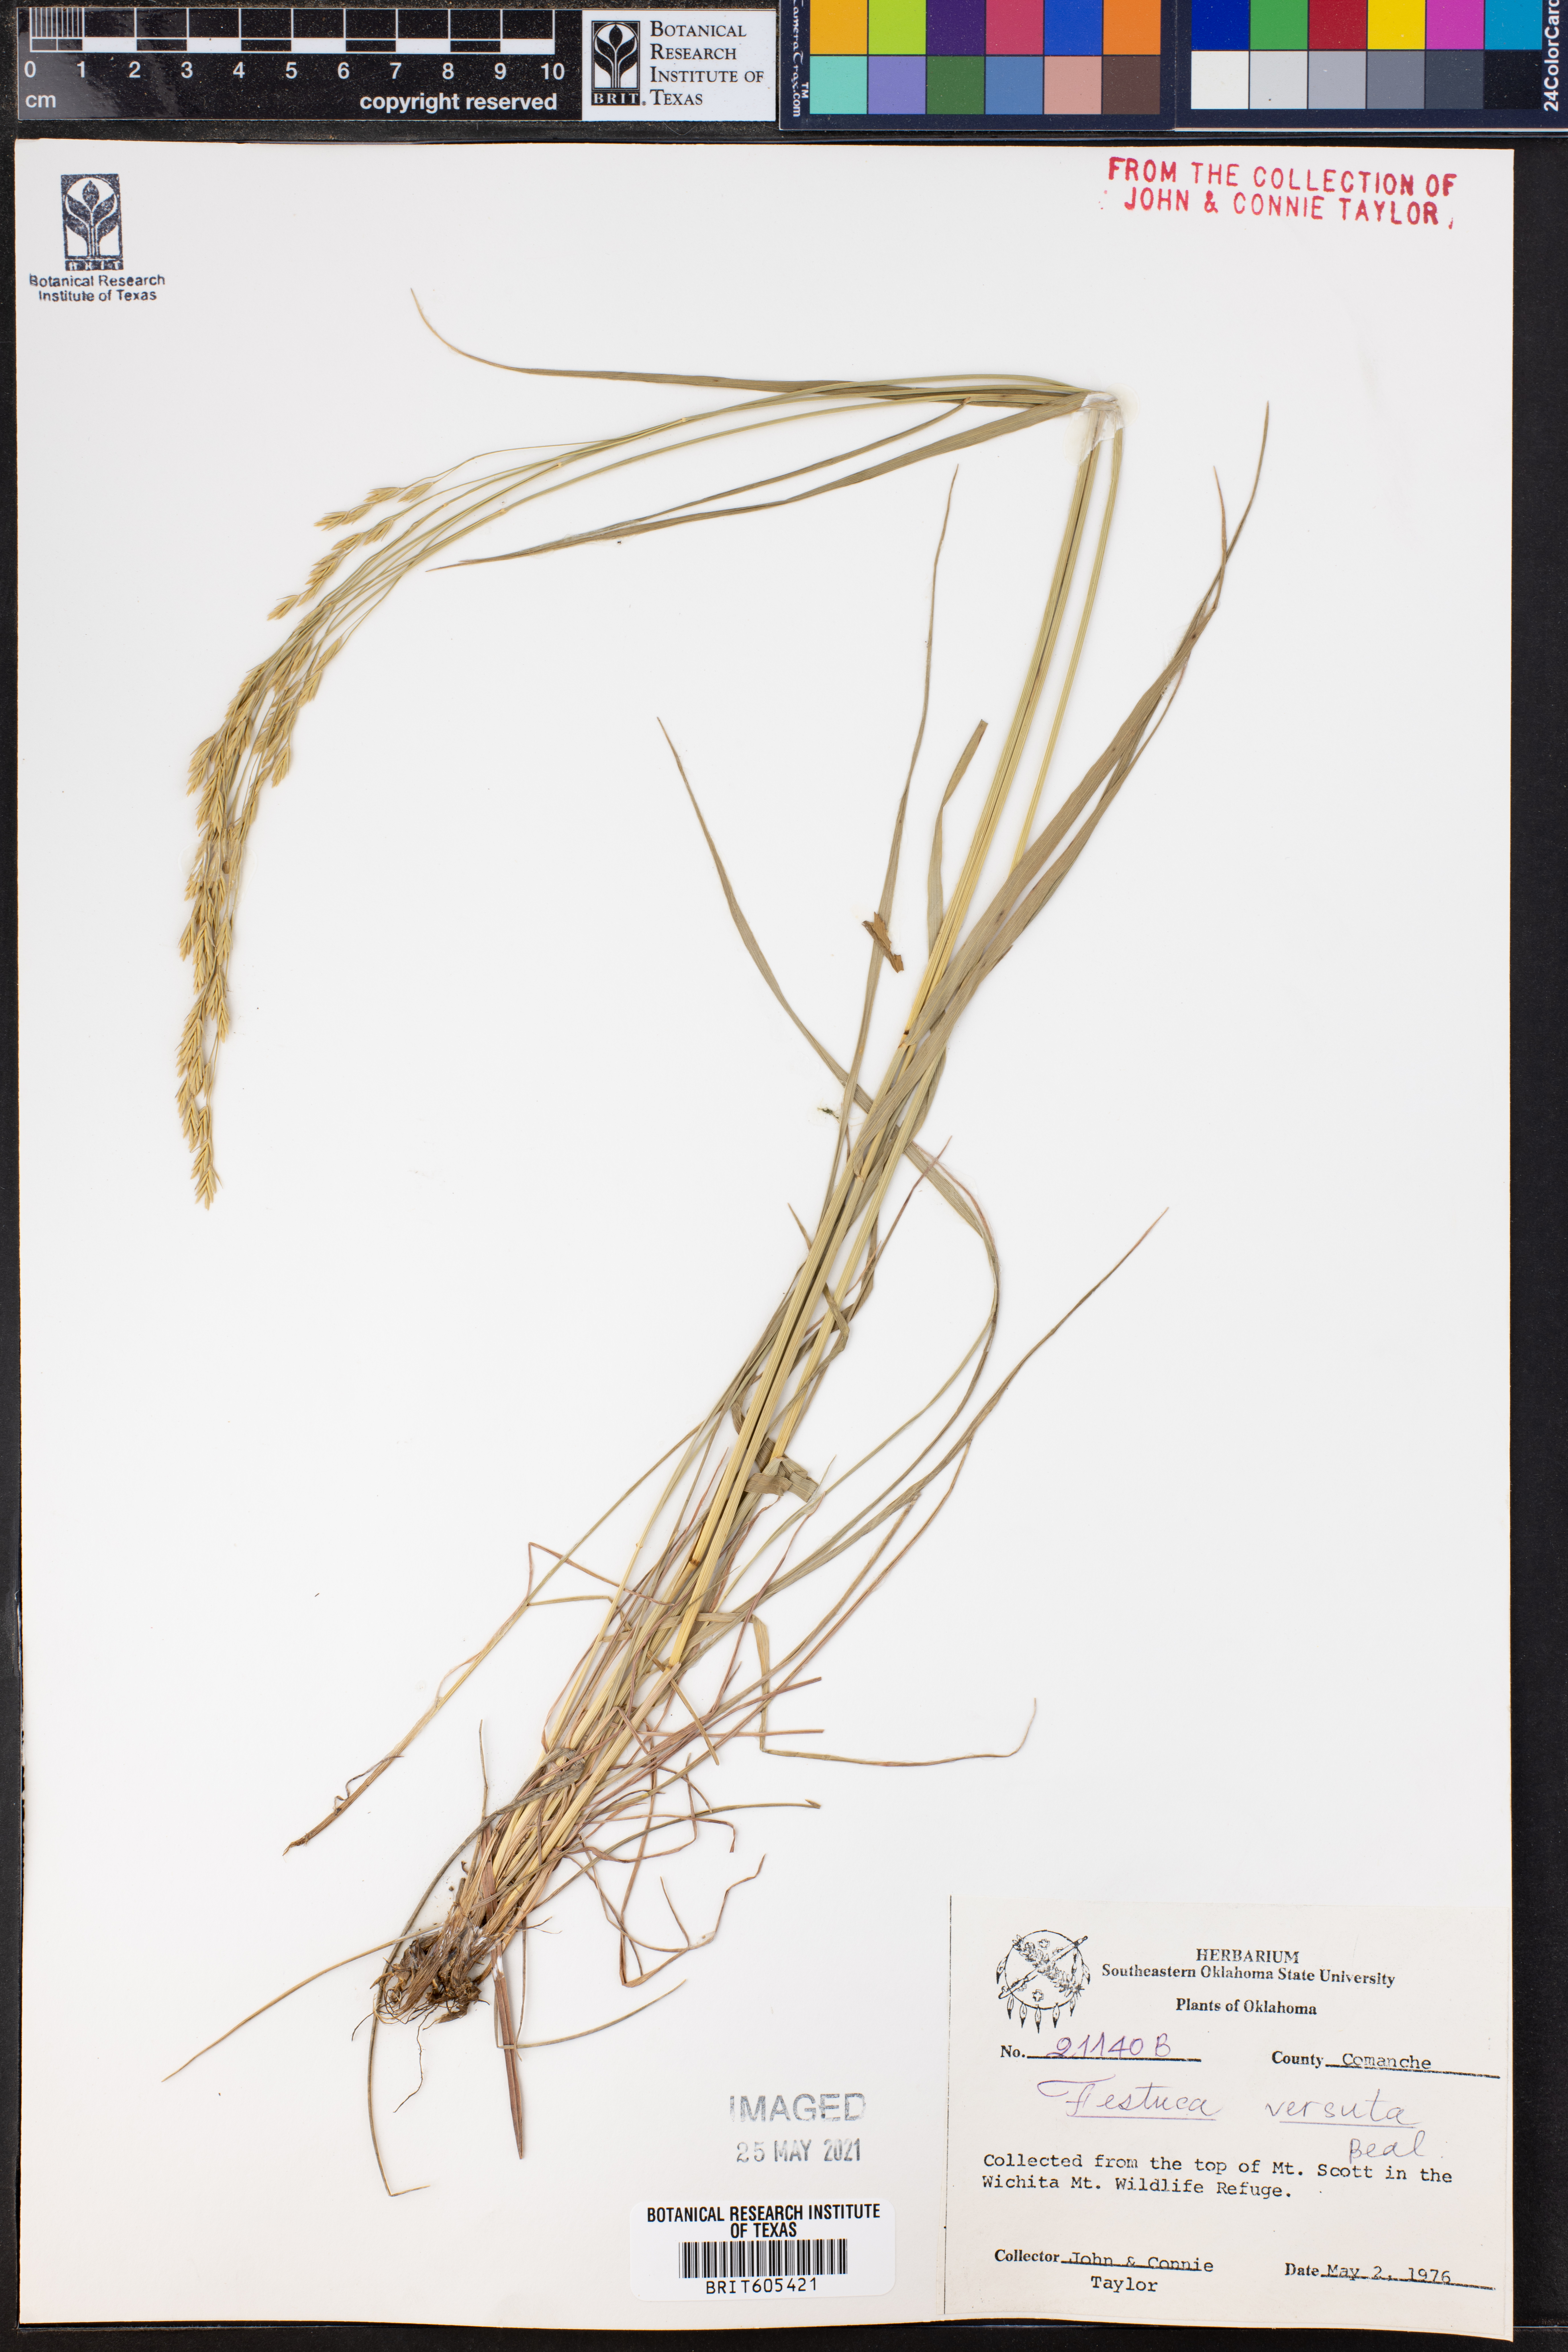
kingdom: Plantae
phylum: Tracheophyta
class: Liliopsida
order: Poales
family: Poaceae
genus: Festuca
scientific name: Festuca versuta
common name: Texas fescue
